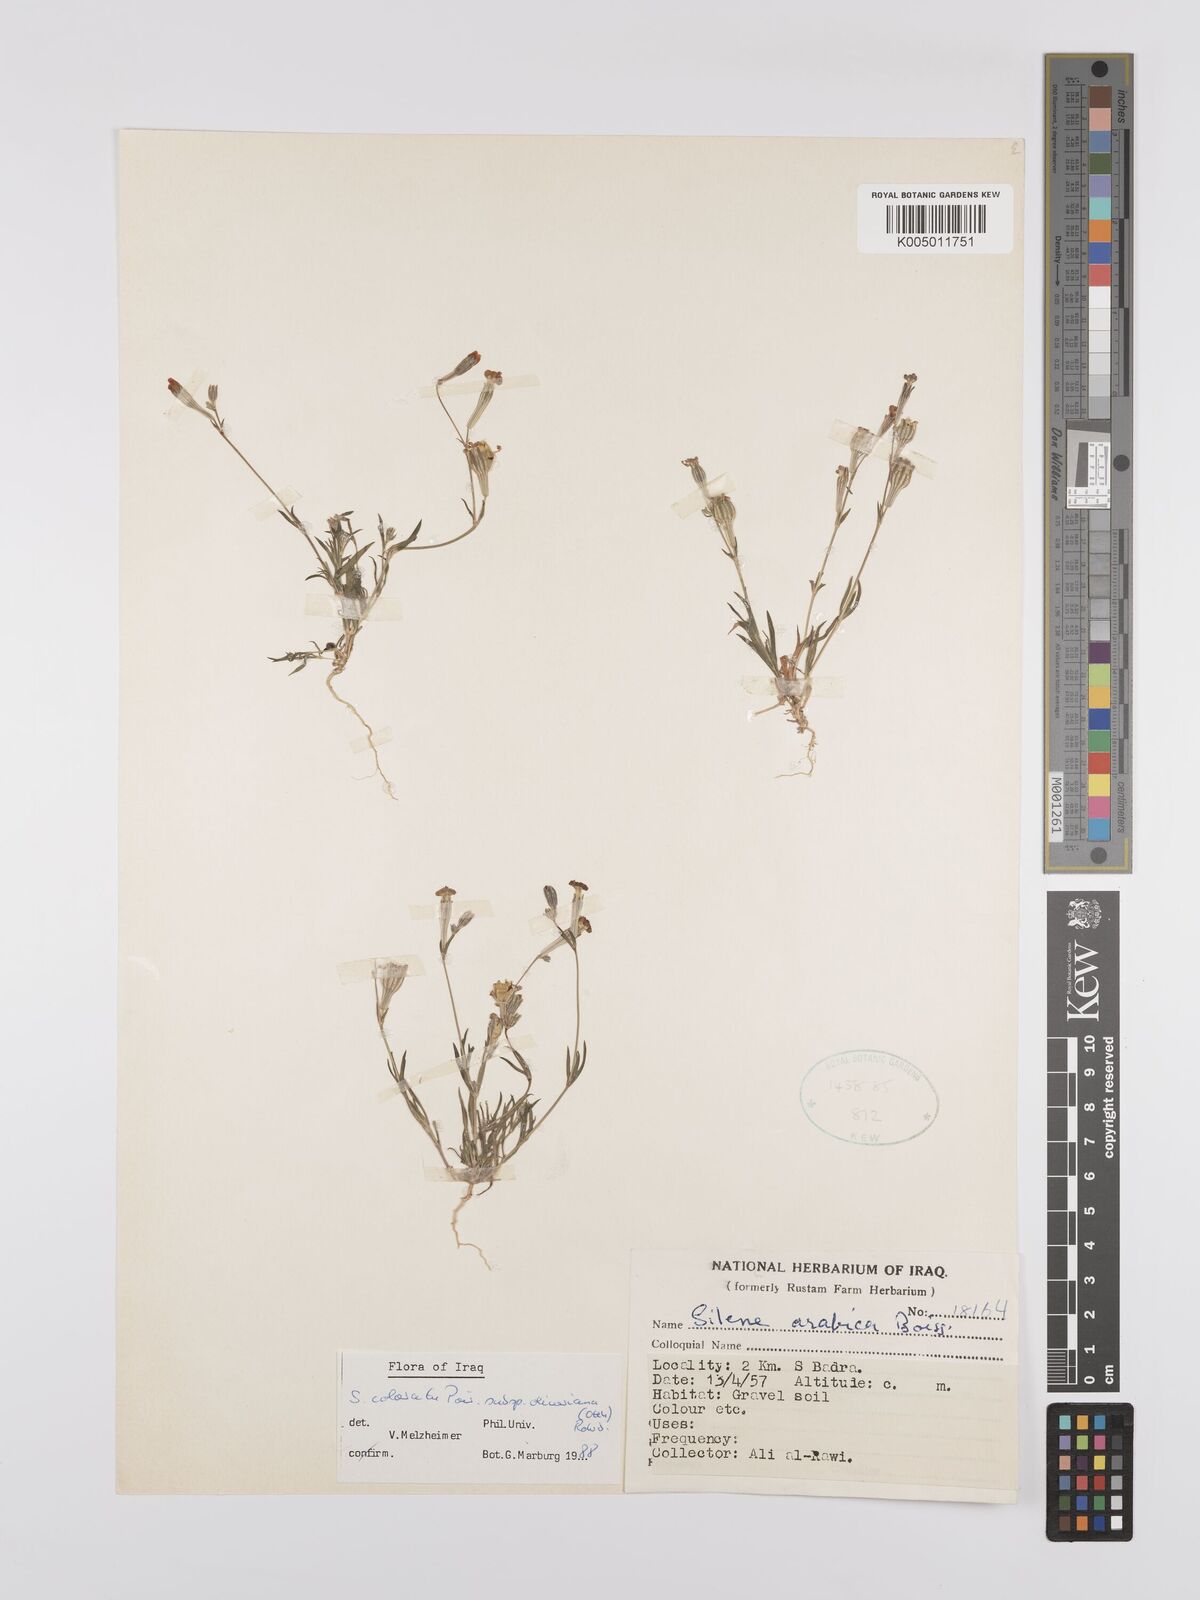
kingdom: Plantae
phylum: Tracheophyta
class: Magnoliopsida
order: Caryophyllales
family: Caryophyllaceae
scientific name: Caryophyllaceae
